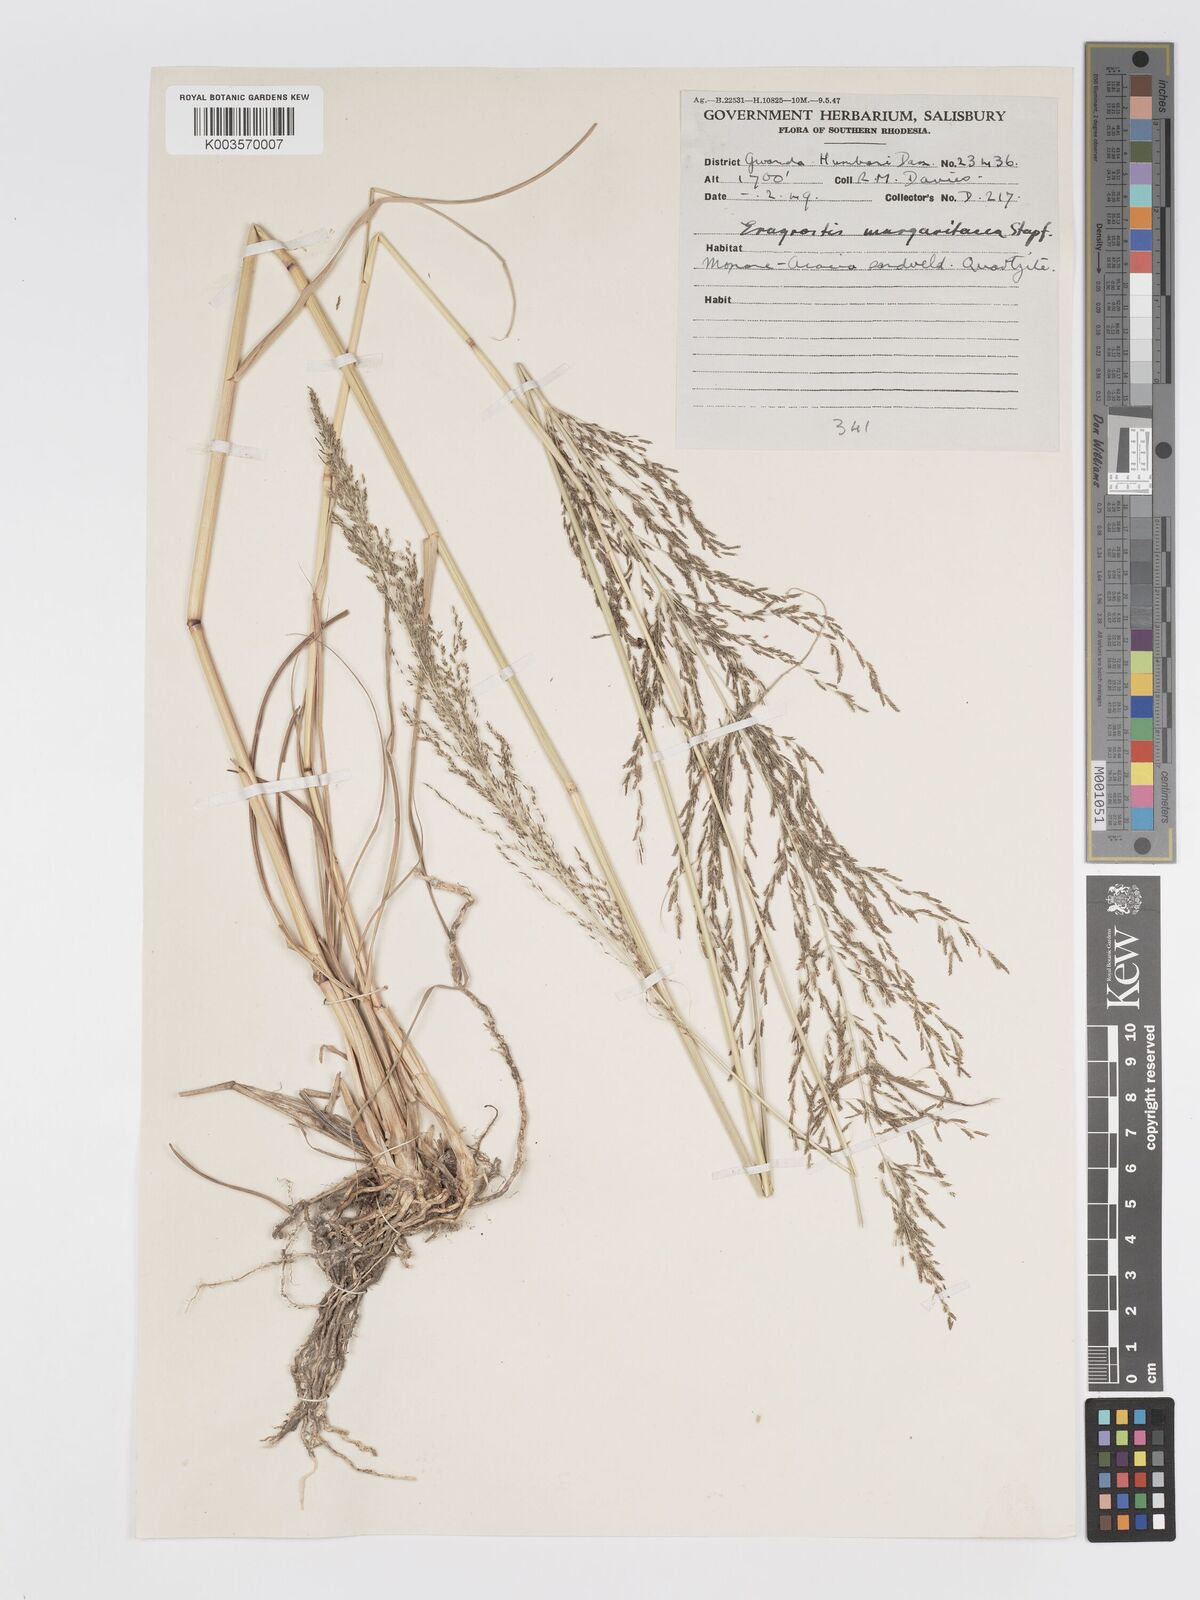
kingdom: Plantae
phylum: Tracheophyta
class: Liliopsida
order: Poales
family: Poaceae
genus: Eragrostis
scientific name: Eragrostis rotifer
